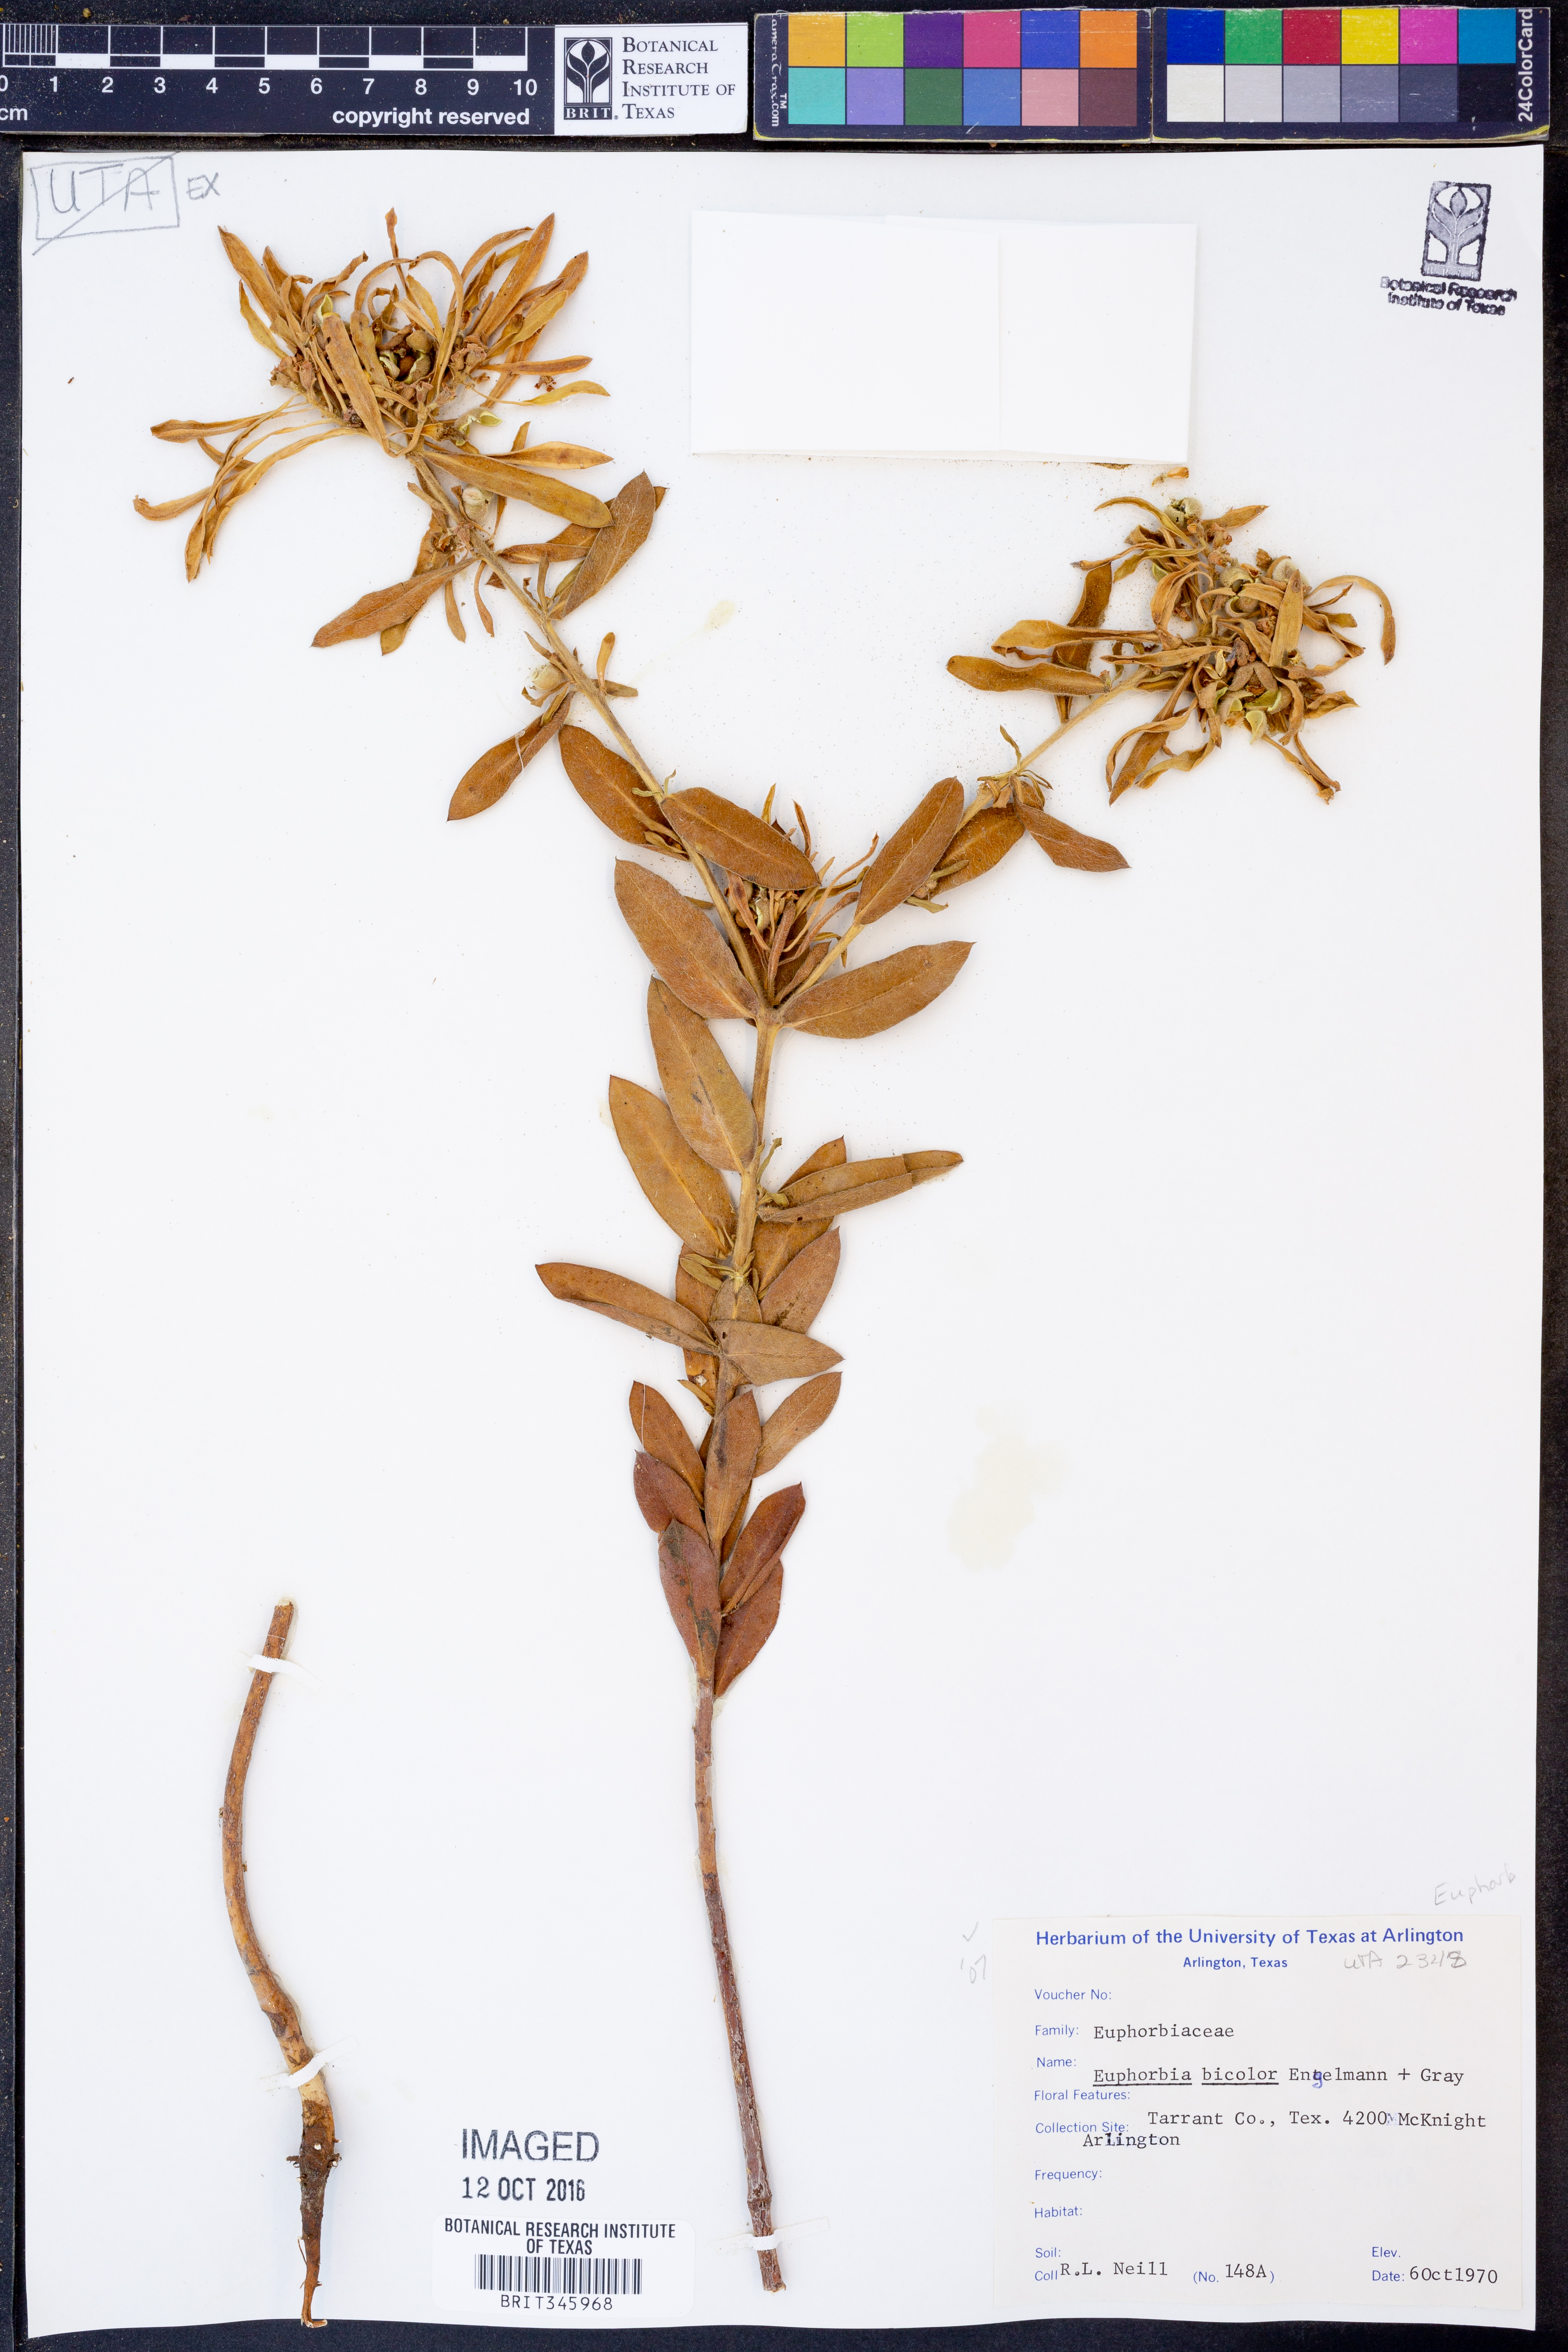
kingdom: Plantae
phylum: Tracheophyta
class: Magnoliopsida
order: Malpighiales
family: Euphorbiaceae
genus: Euphorbia
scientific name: Euphorbia bicolor
